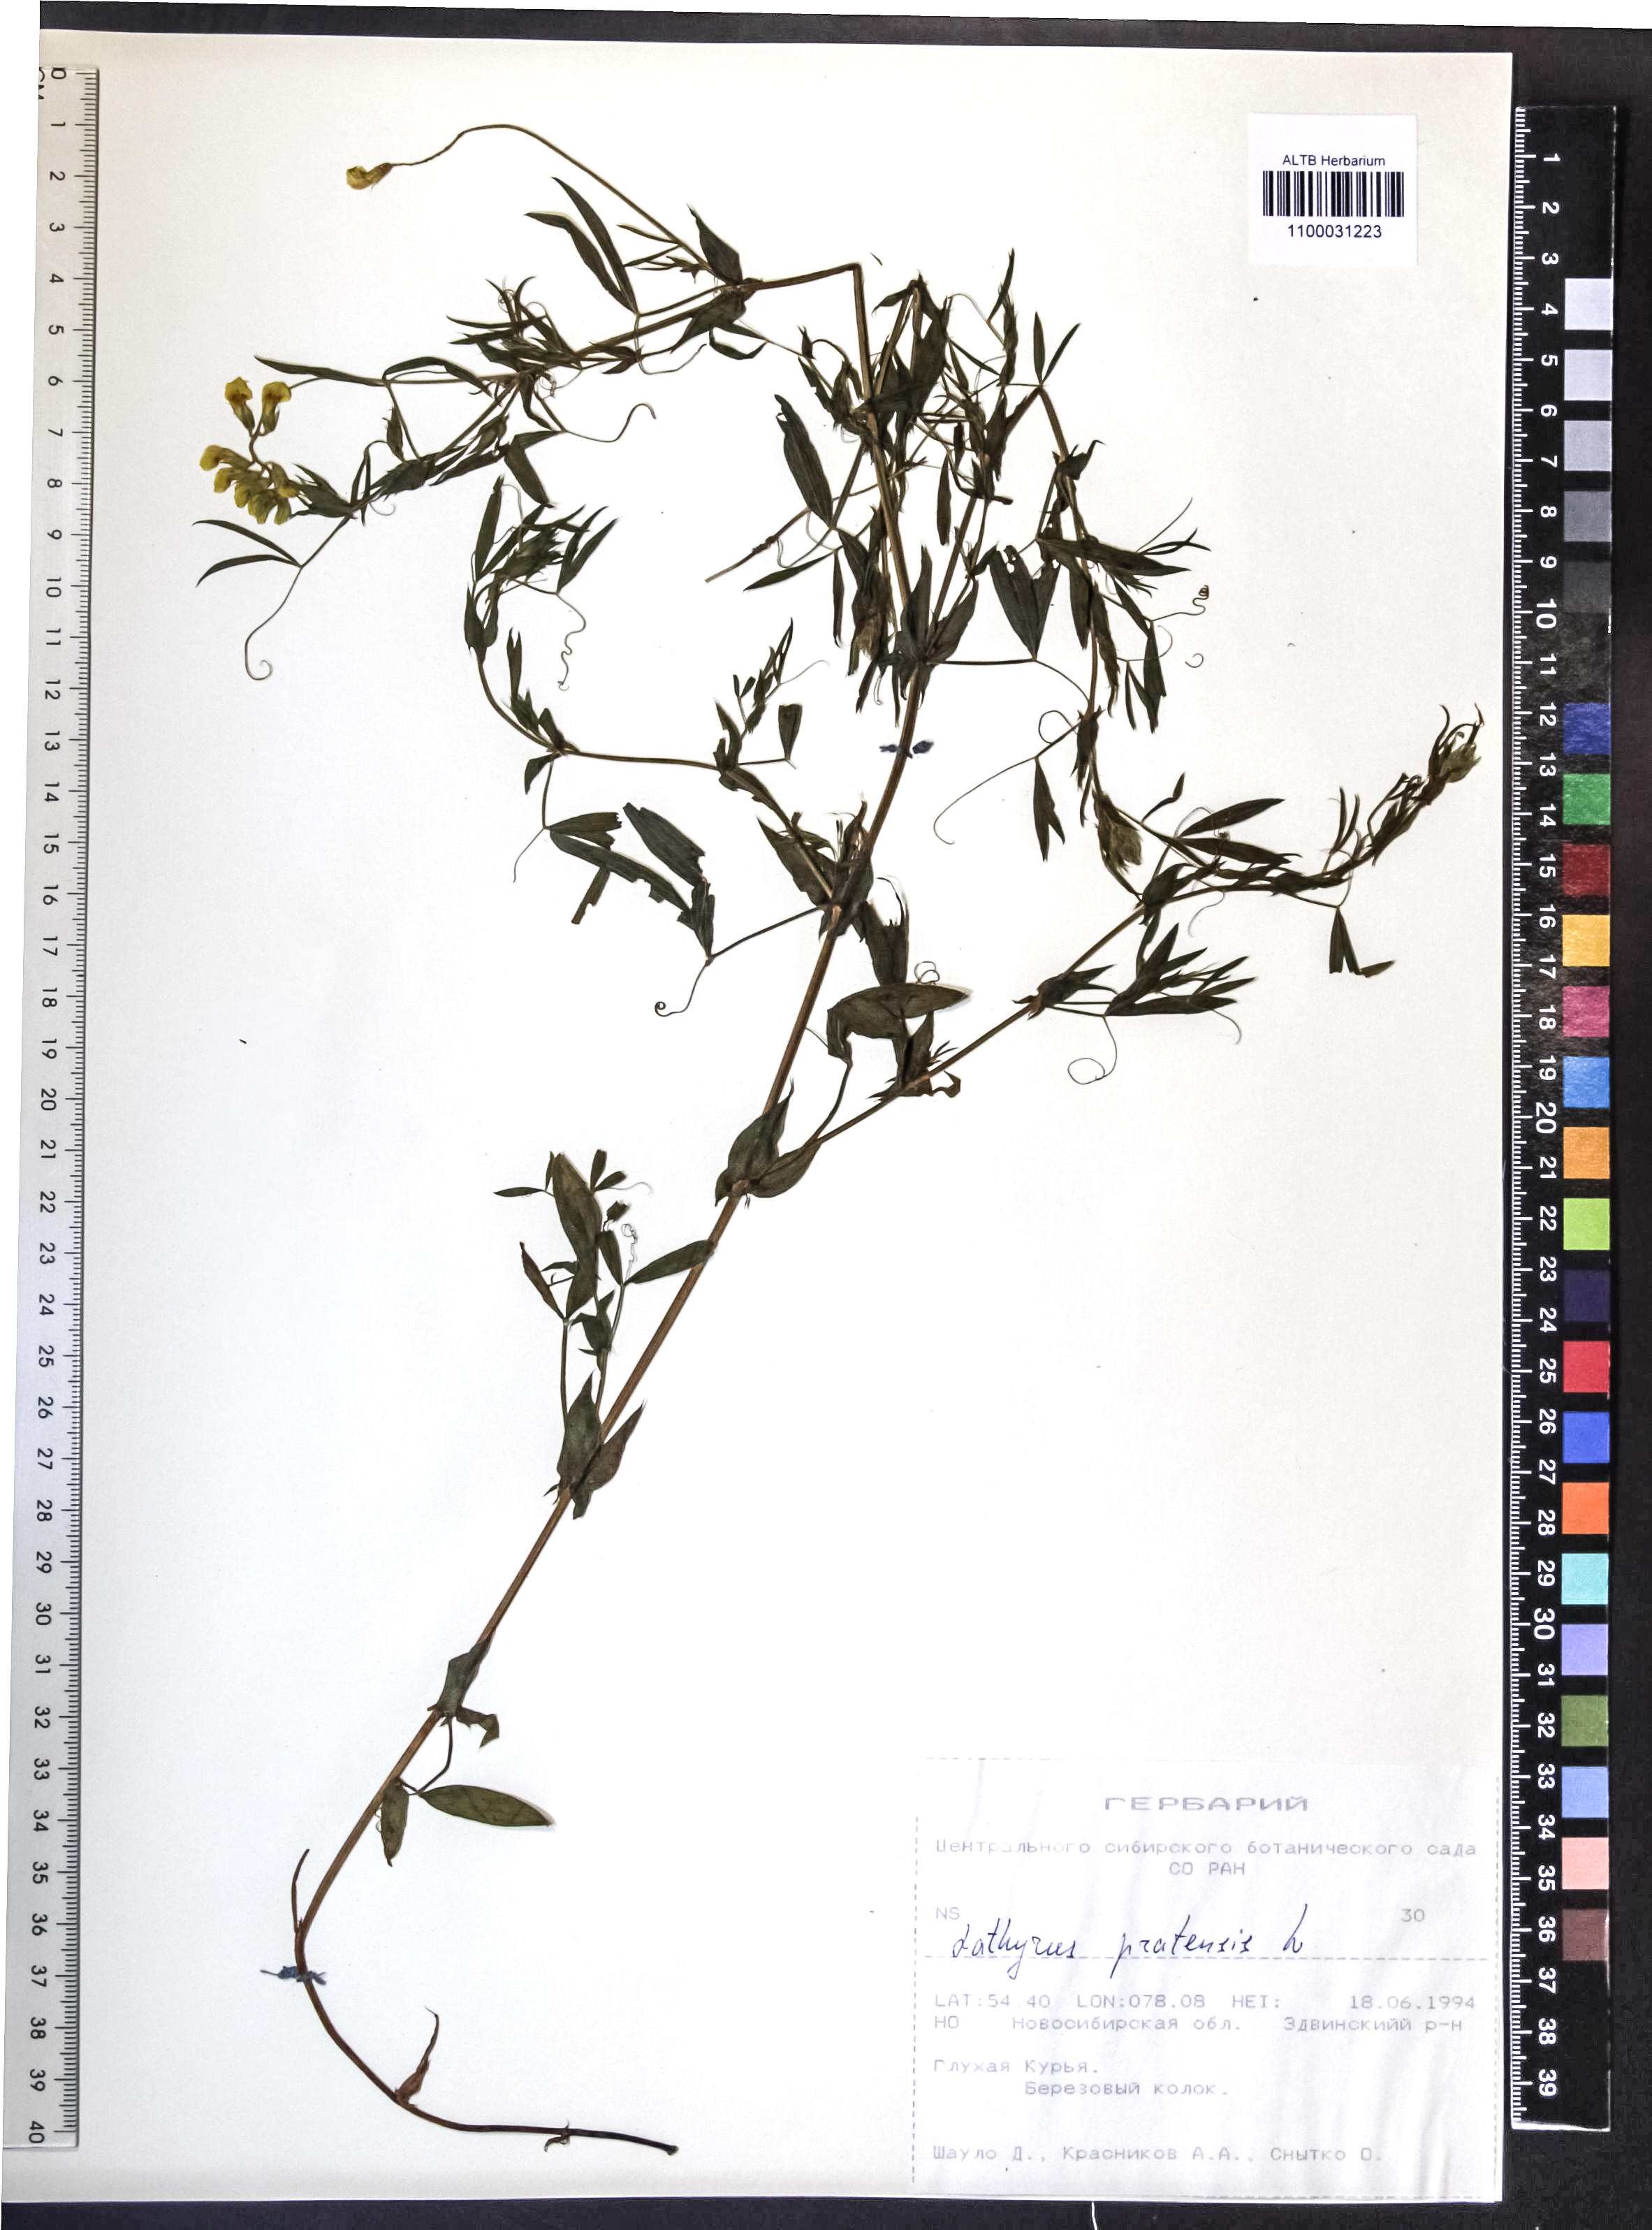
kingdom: Plantae
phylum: Tracheophyta
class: Magnoliopsida
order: Fabales
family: Fabaceae
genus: Lathyrus
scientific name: Lathyrus pratensis
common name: Meadow vetchling
